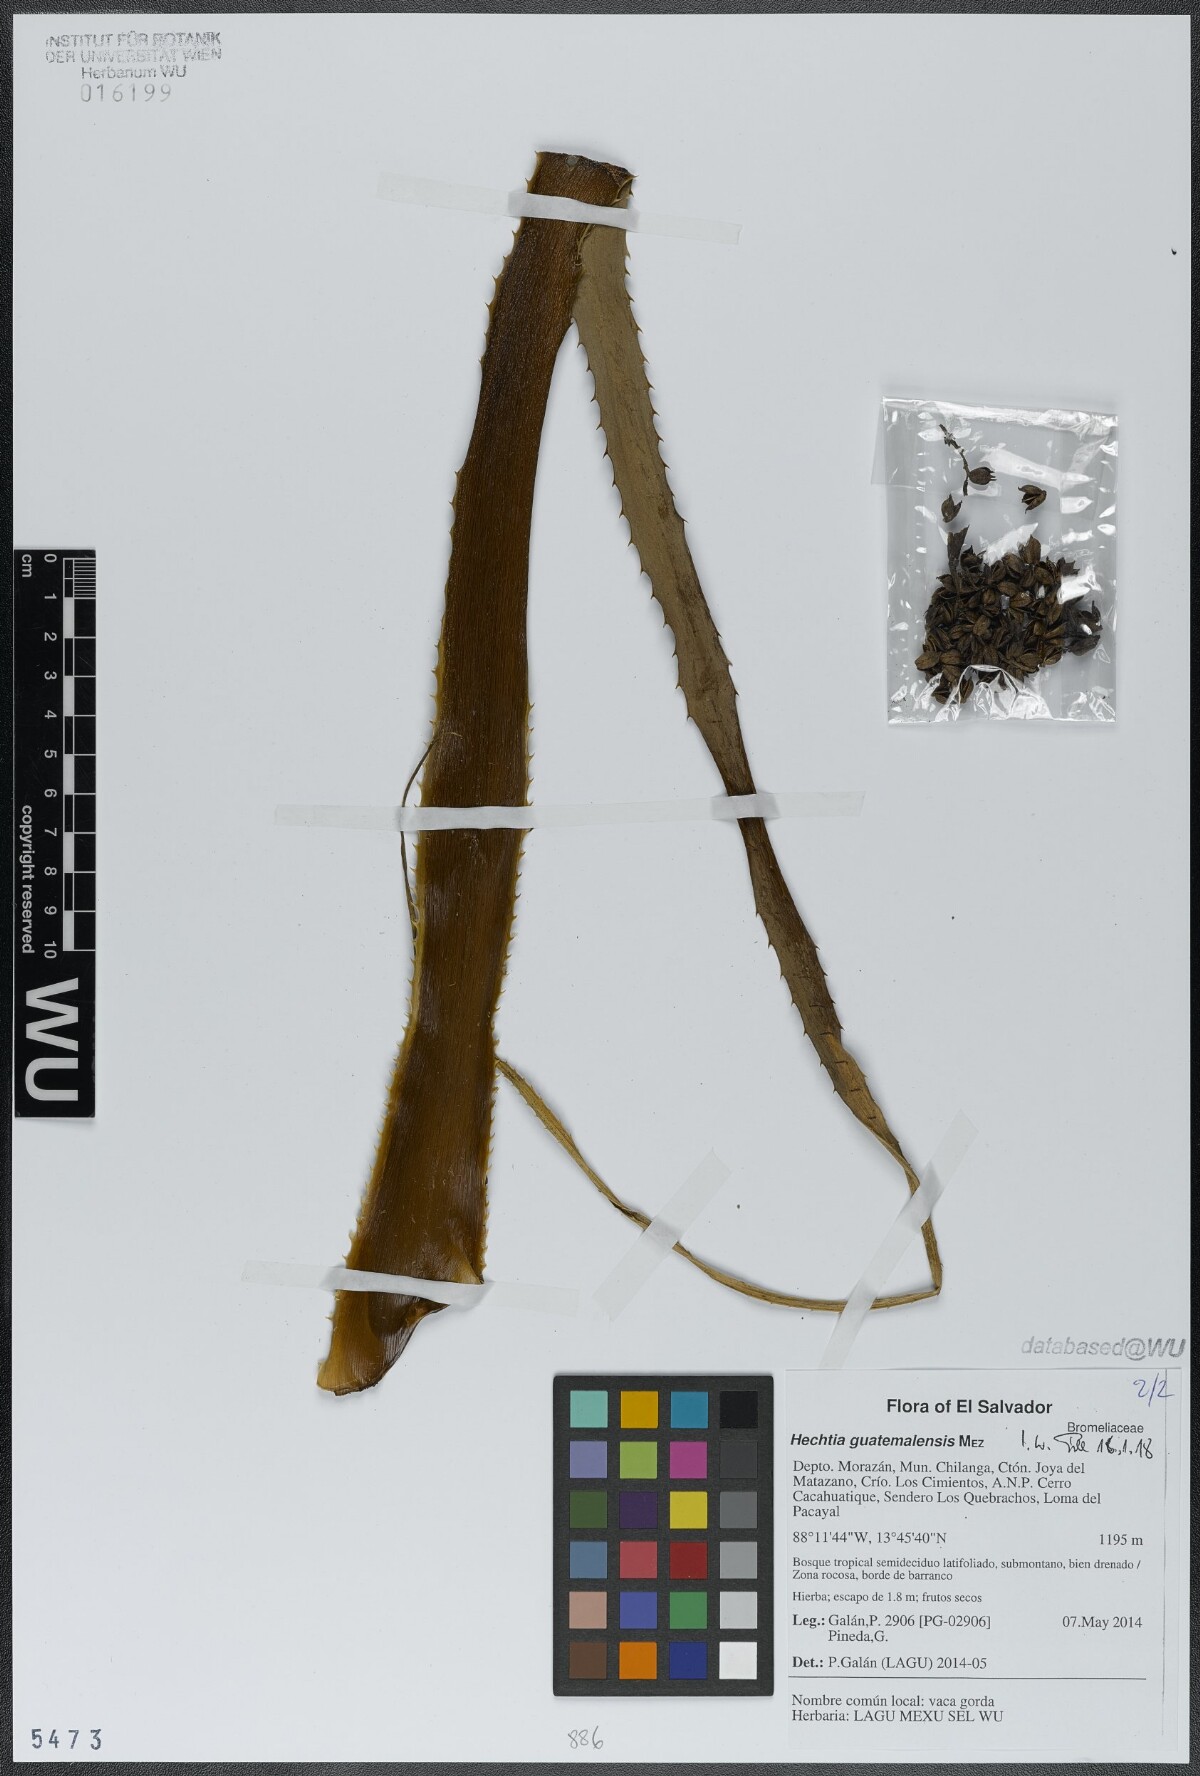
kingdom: Plantae
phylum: Tracheophyta
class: Liliopsida
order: Poales
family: Bromeliaceae
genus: Hechtia
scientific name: Hechtia guatemalensis
